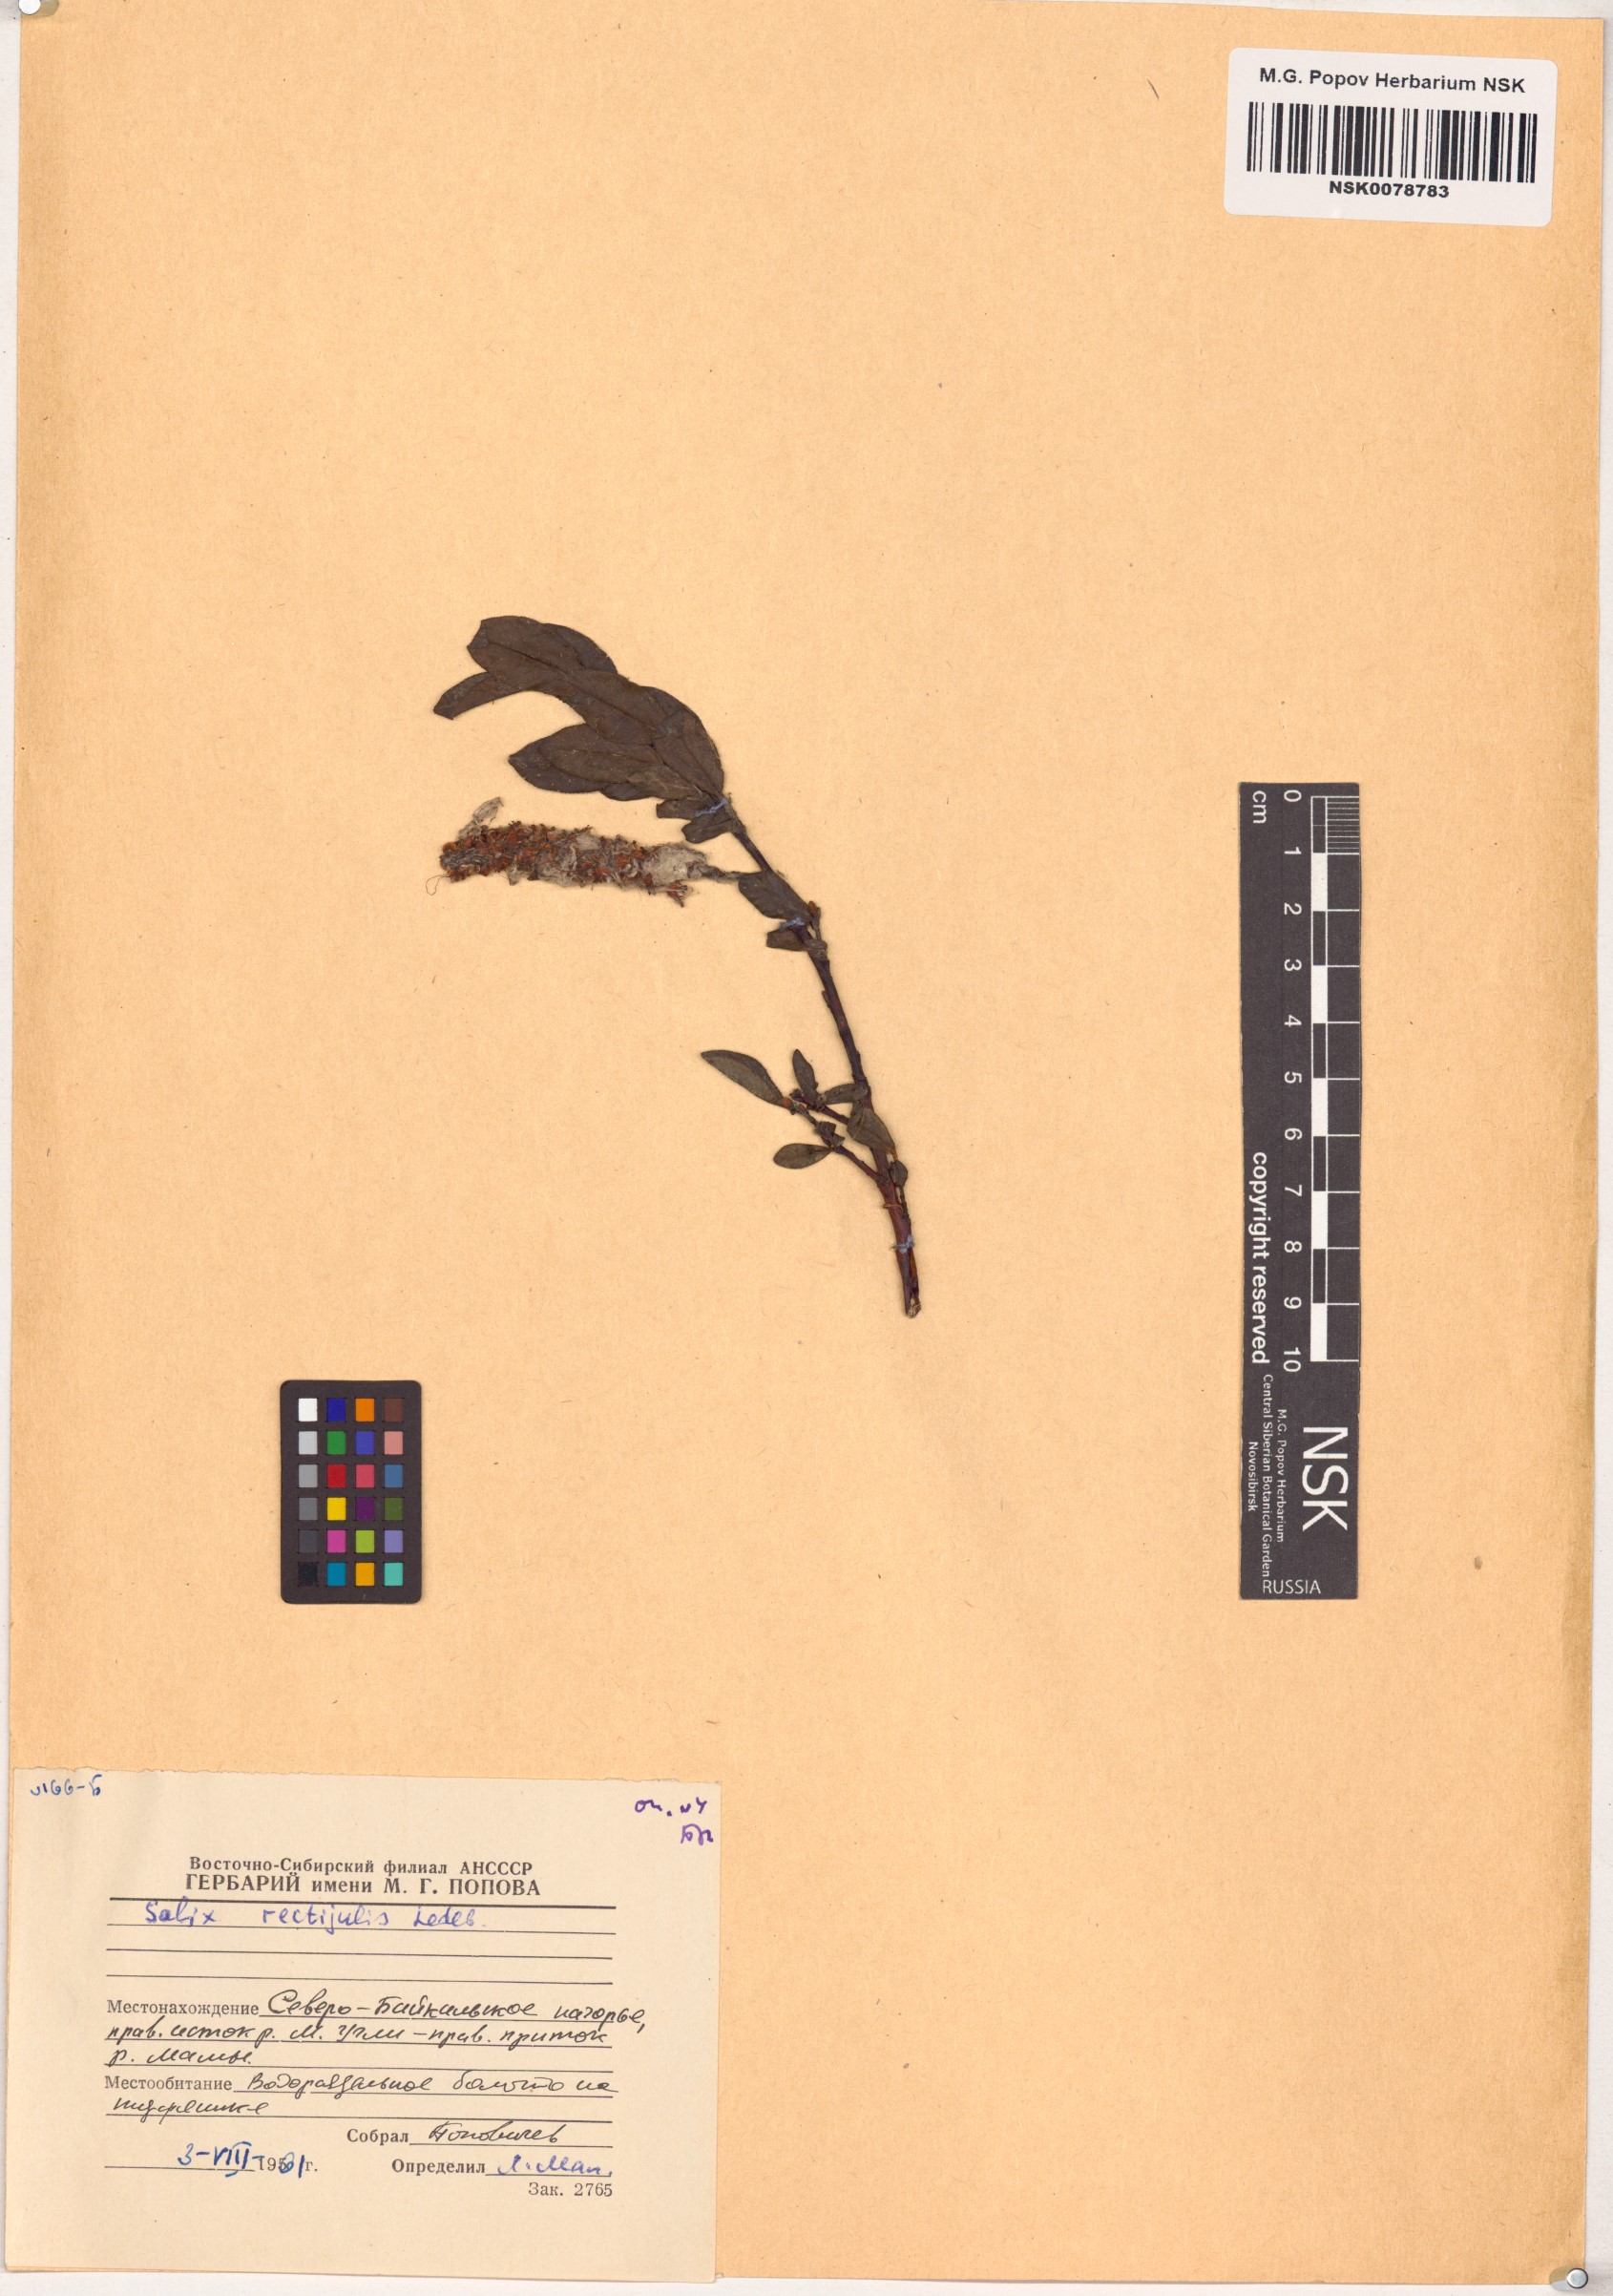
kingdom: Plantae
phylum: Tracheophyta
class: Magnoliopsida
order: Malpighiales
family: Salicaceae
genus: Salix
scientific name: Salix rectijulis
